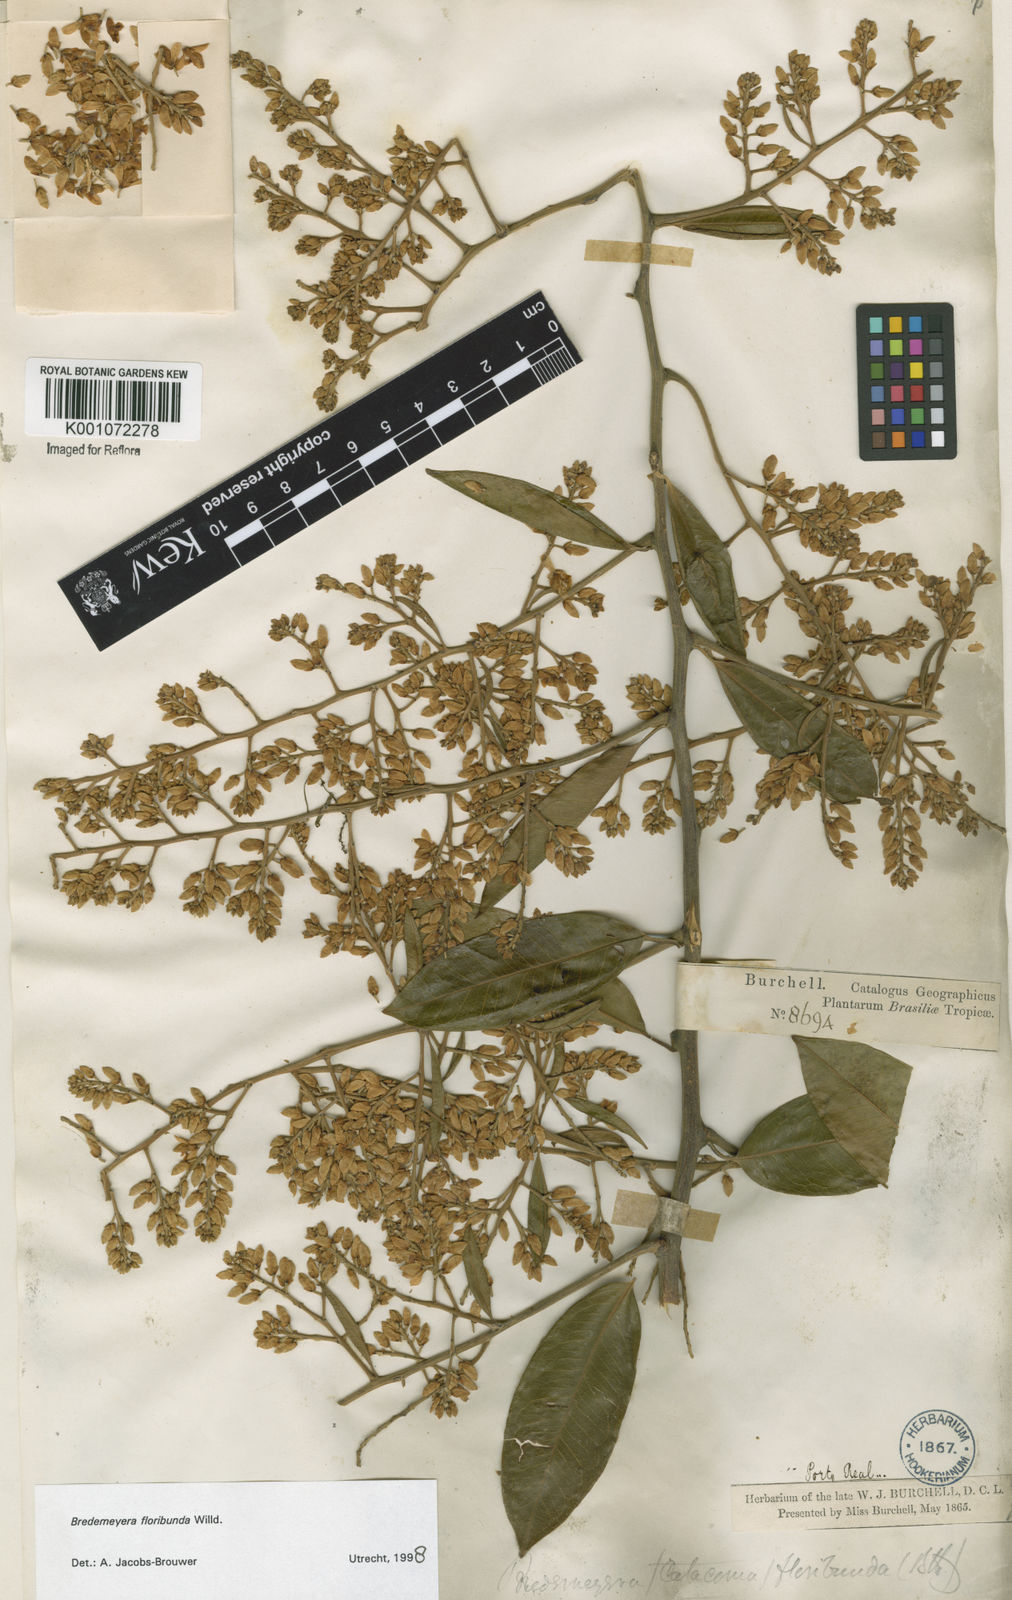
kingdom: Plantae
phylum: Tracheophyta
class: Magnoliopsida
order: Fabales
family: Polygalaceae
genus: Bredemeyera
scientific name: Bredemeyera floribunda
